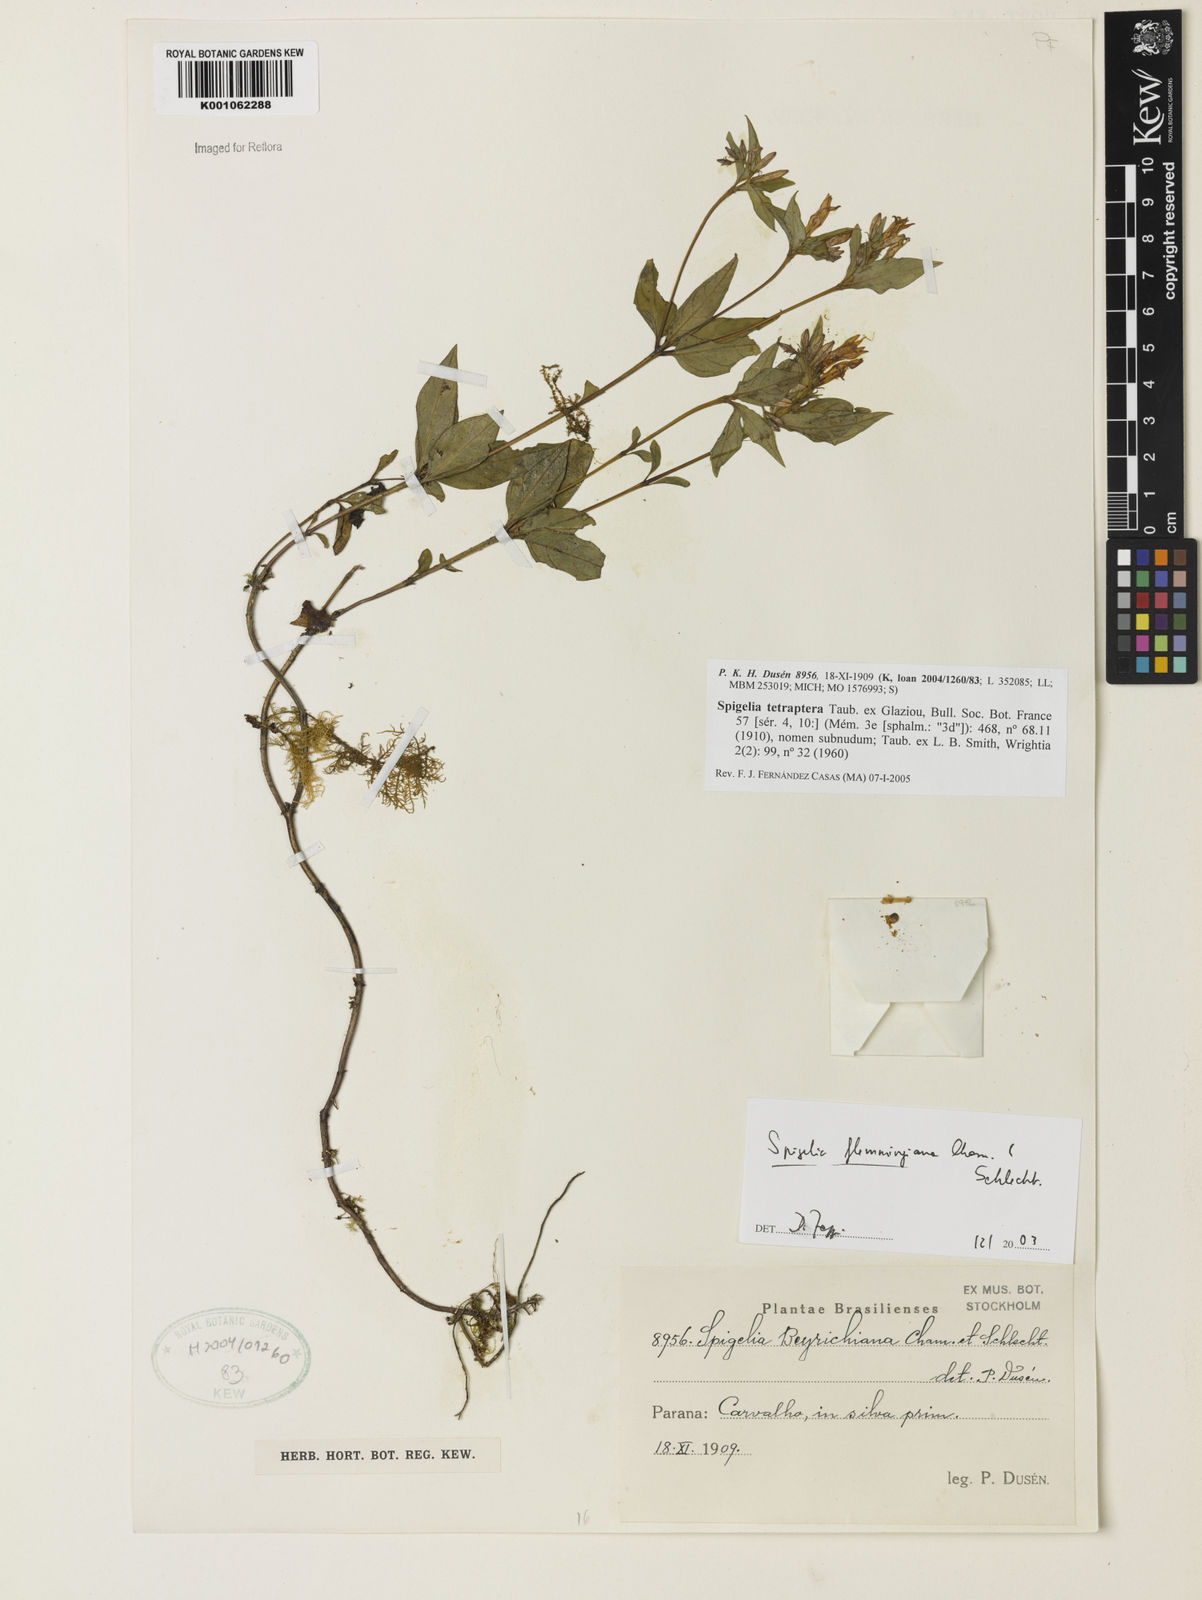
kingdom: Plantae
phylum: Tracheophyta
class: Magnoliopsida
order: Gentianales
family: Loganiaceae
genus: Spigelia
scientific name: Spigelia tetraptera
